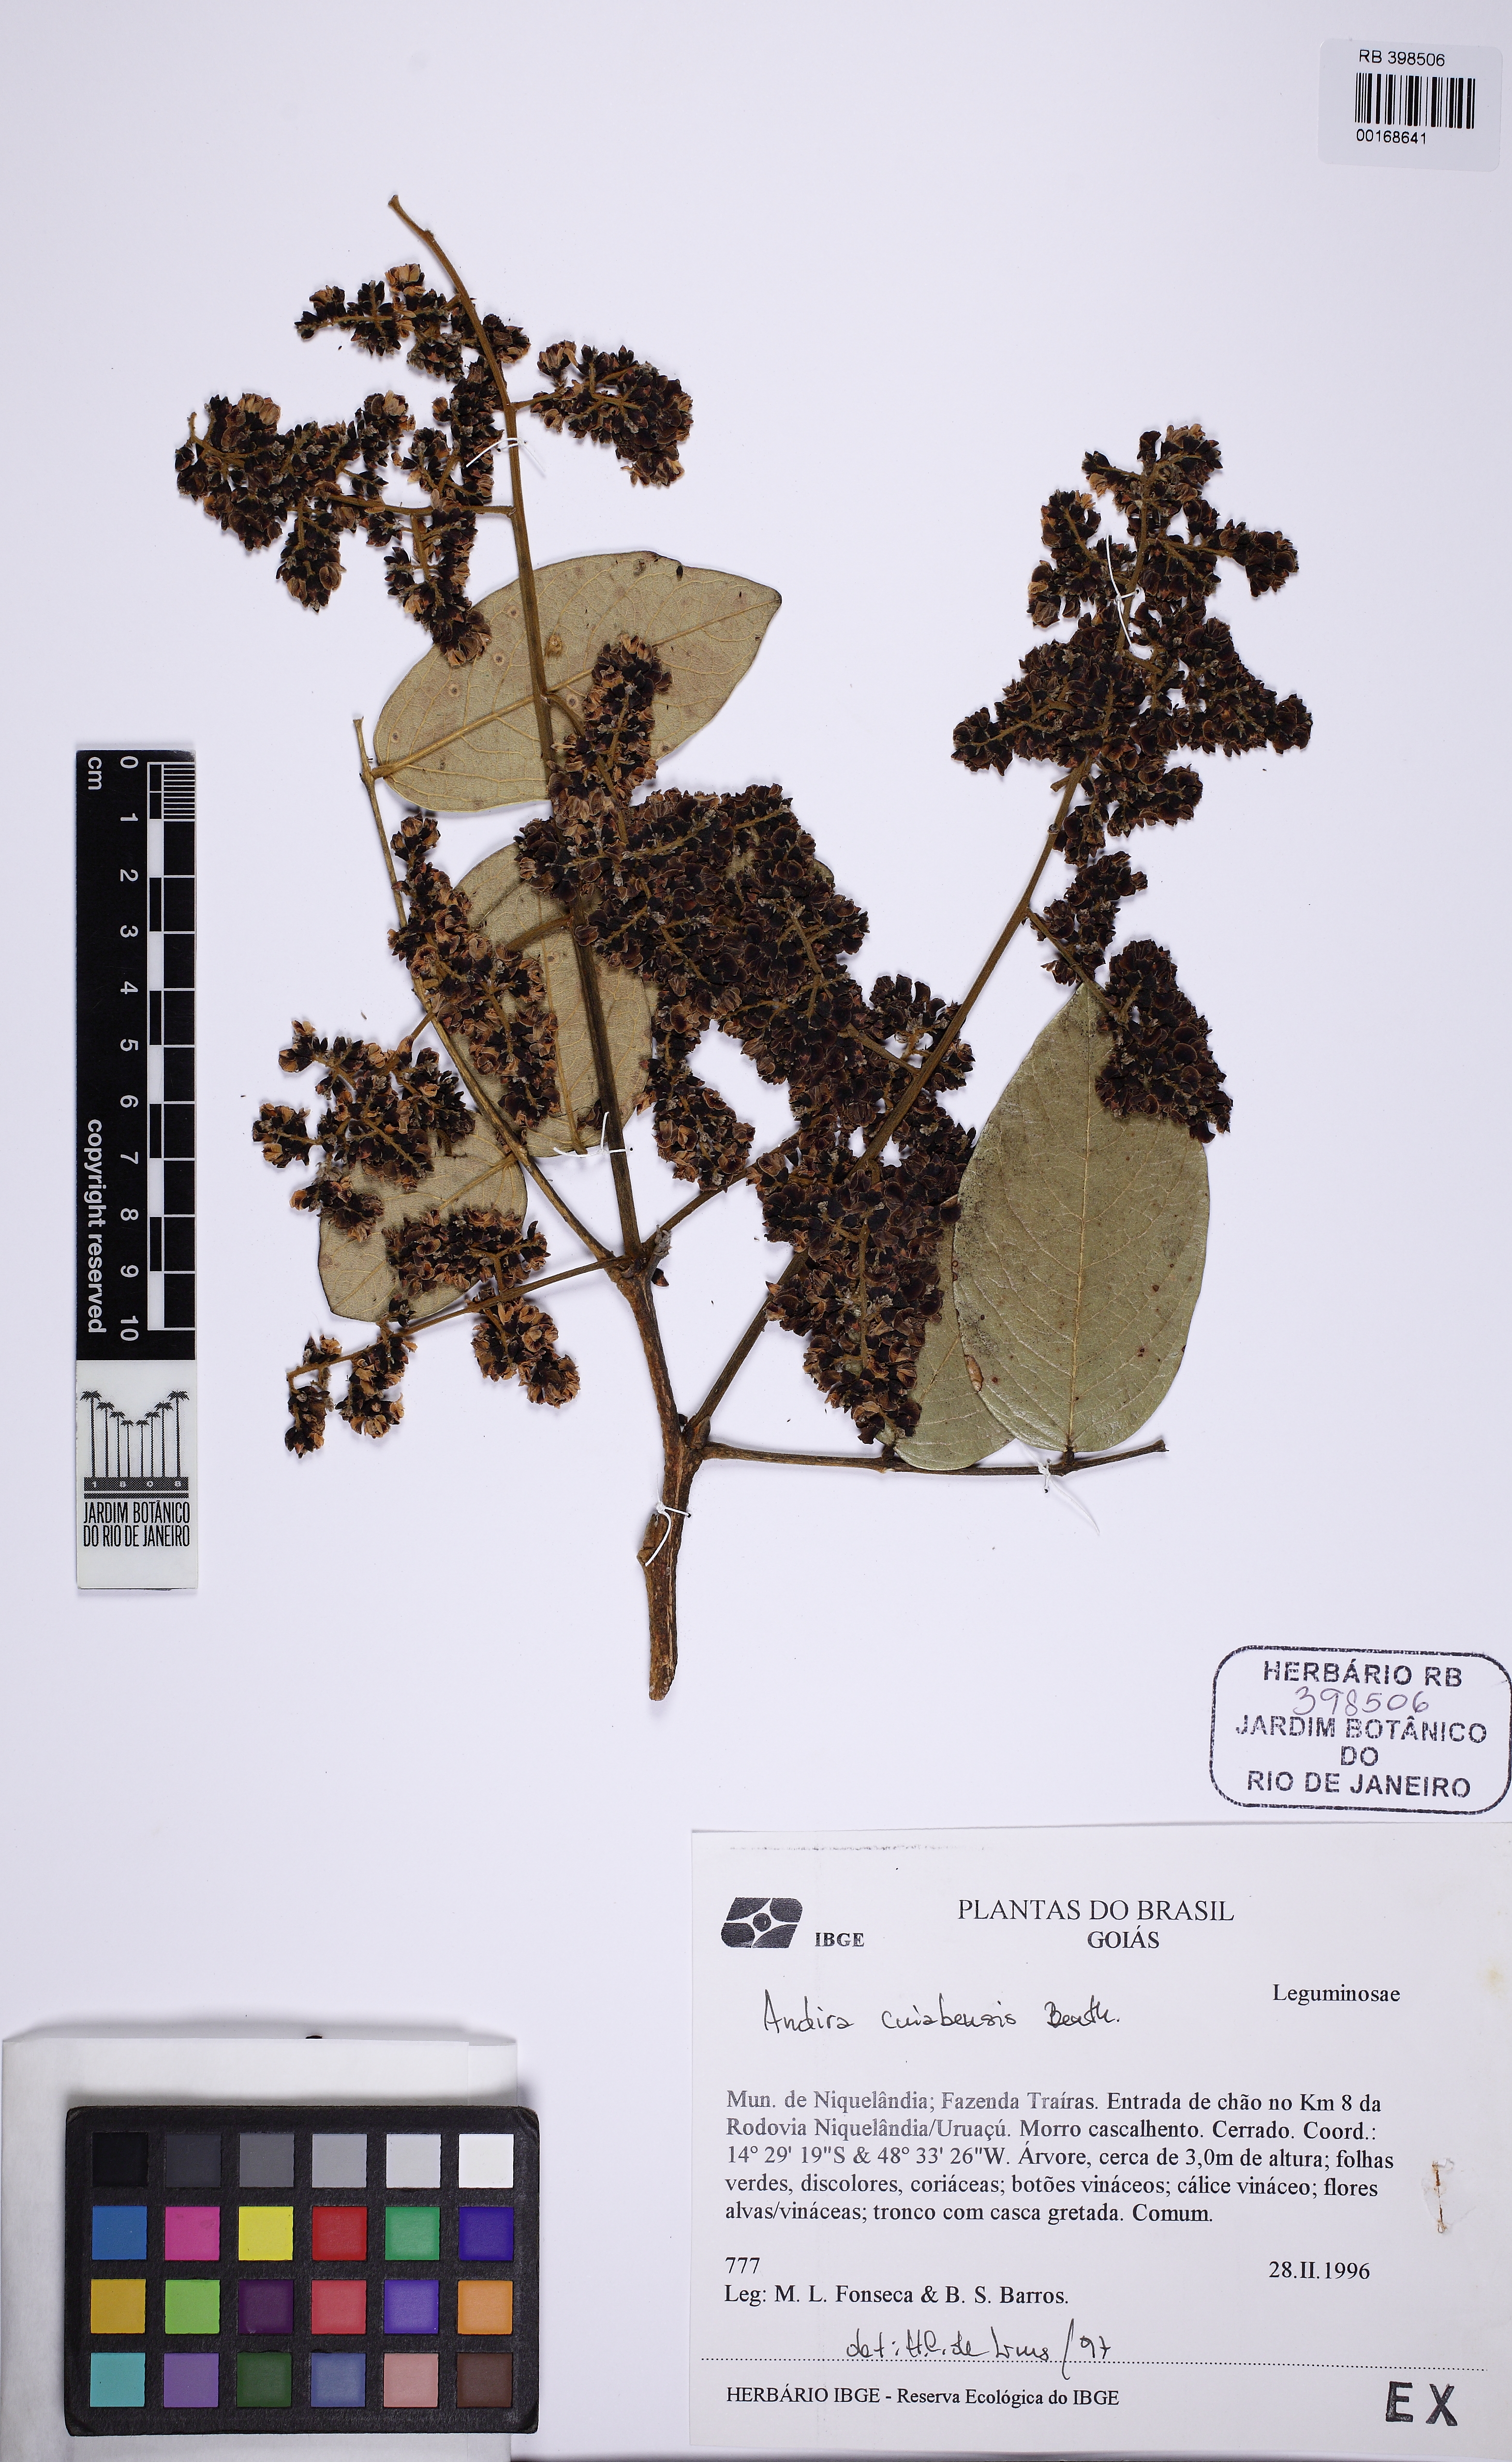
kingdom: Plantae
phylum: Tracheophyta
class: Magnoliopsida
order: Fabales
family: Fabaceae
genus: Andira
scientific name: Andira cujabensis
